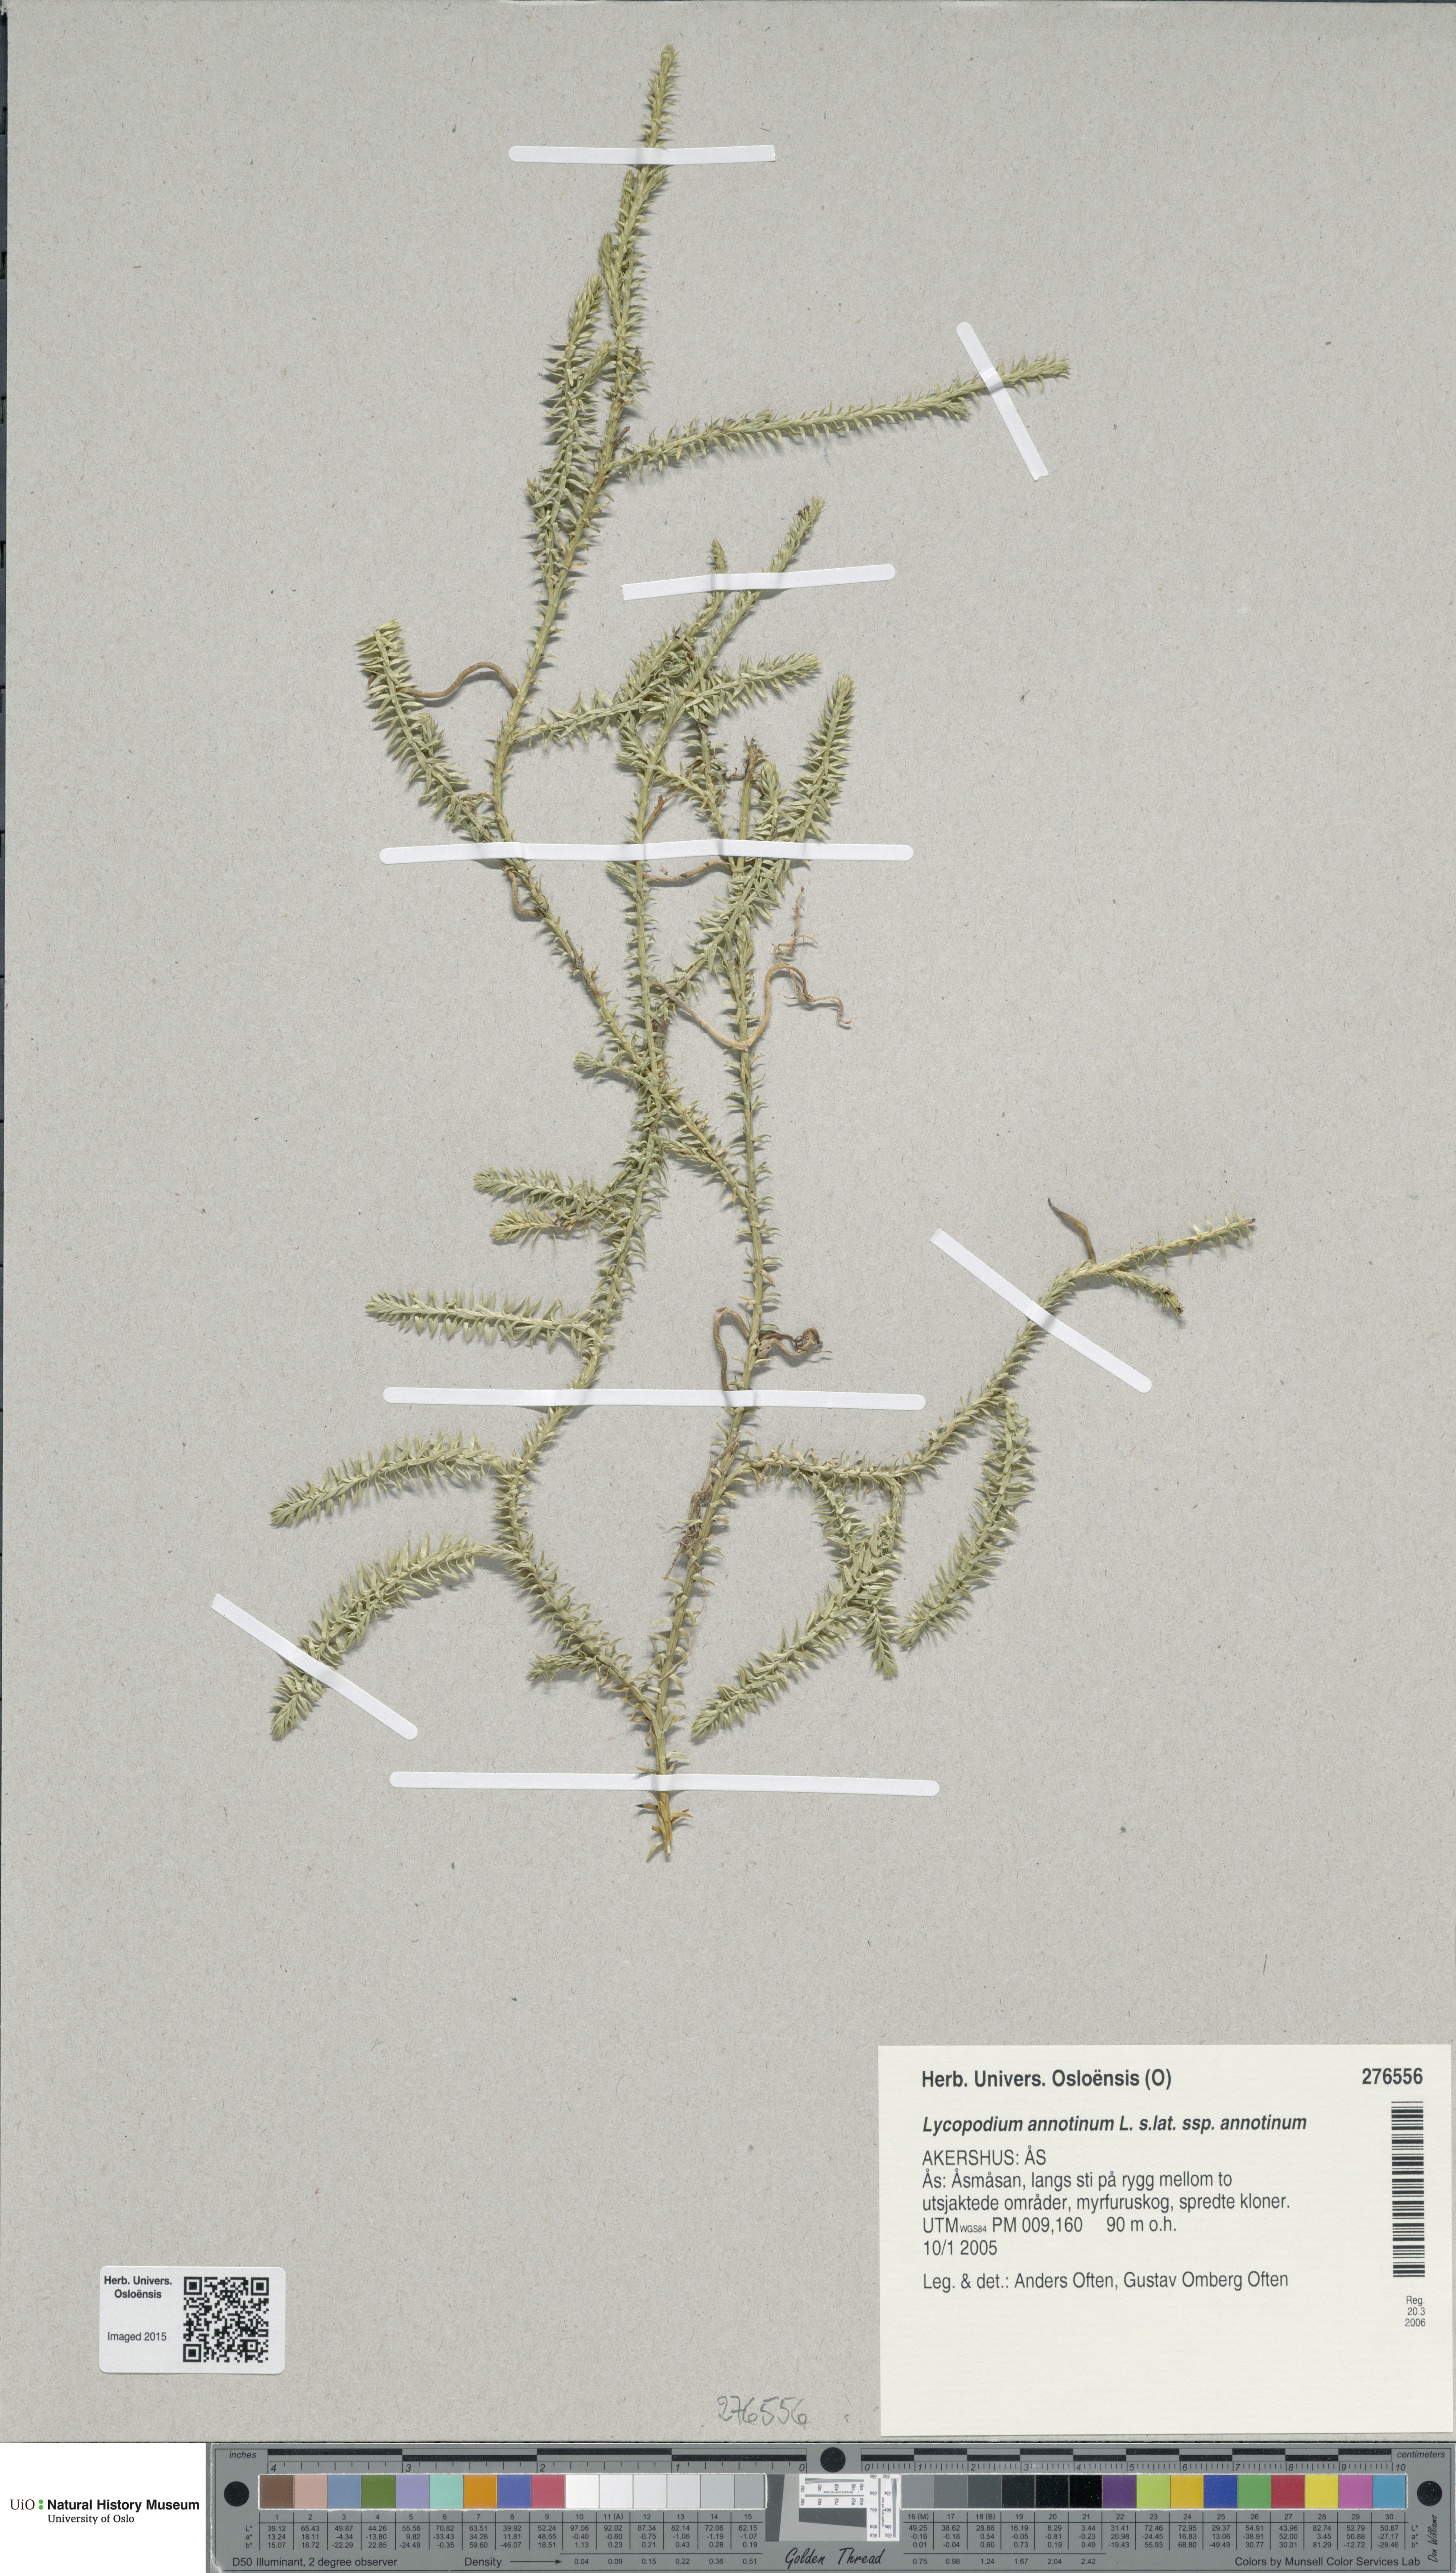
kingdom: Plantae
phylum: Tracheophyta
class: Lycopodiopsida
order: Lycopodiales
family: Lycopodiaceae
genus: Spinulum
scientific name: Spinulum annotinum
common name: Interrupted club-moss
